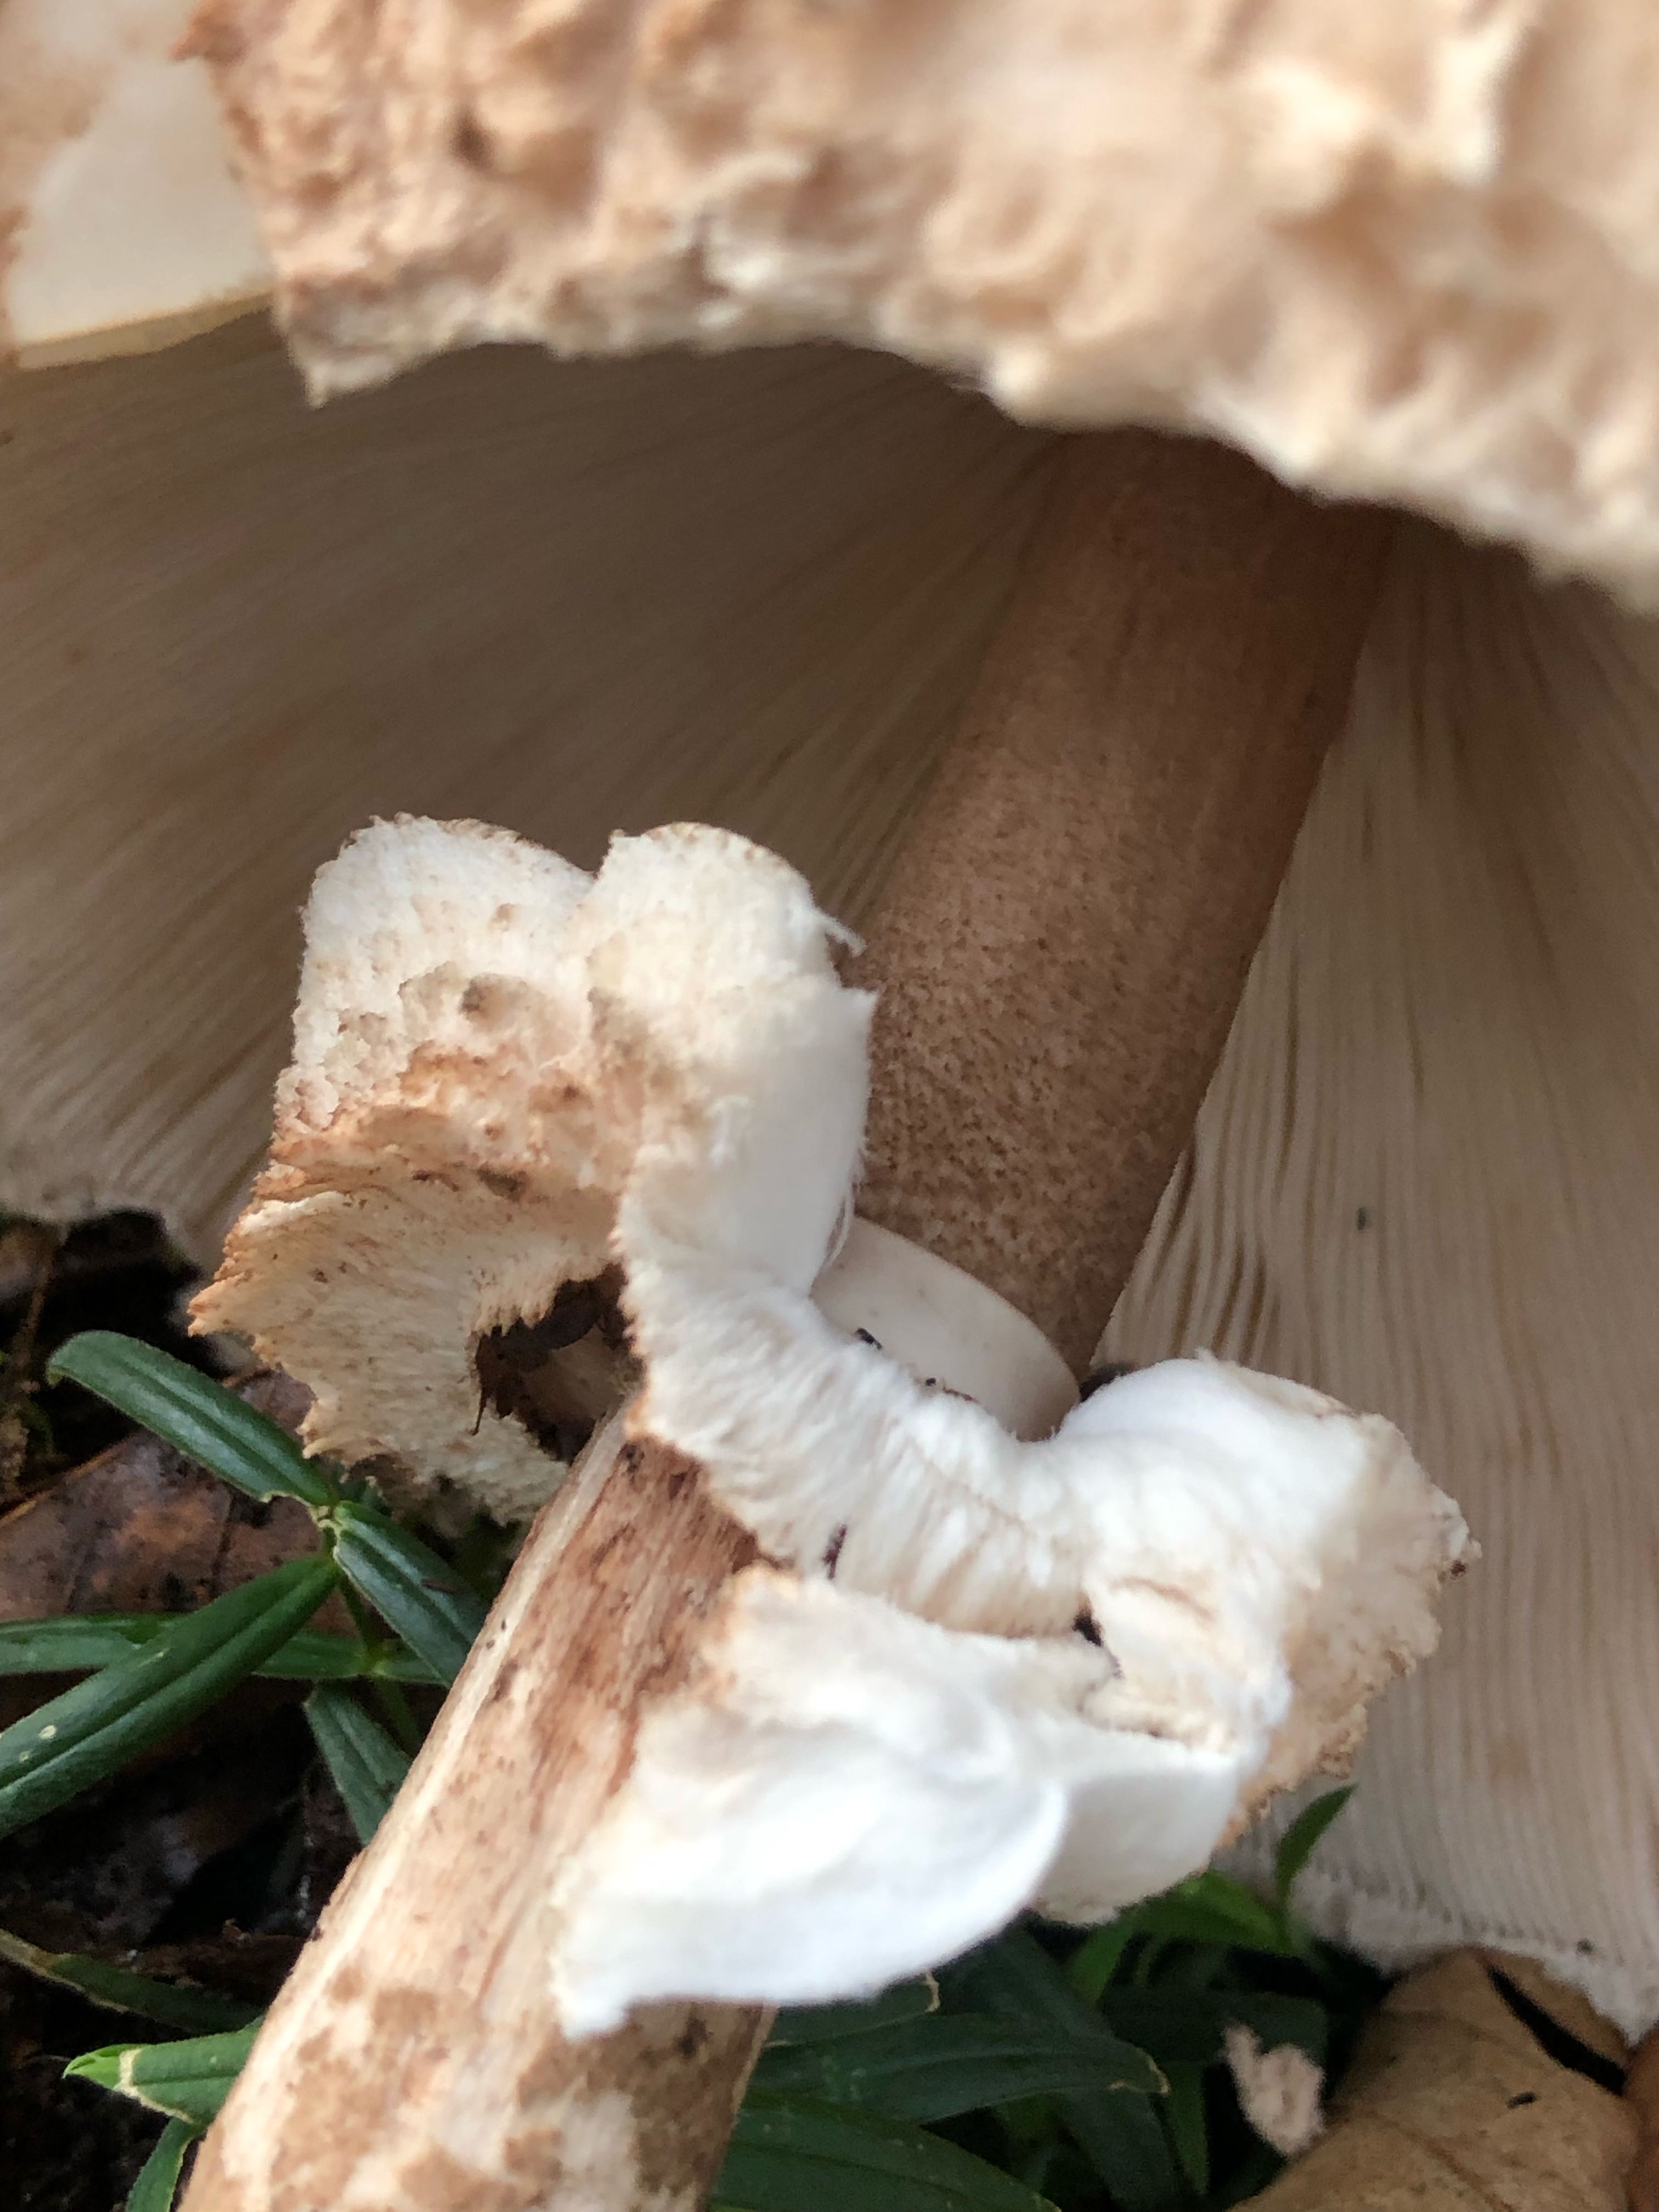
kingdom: Fungi
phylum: Basidiomycota
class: Agaricomycetes
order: Agaricales
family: Agaricaceae
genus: Macrolepiota
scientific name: Macrolepiota fuliginosa
